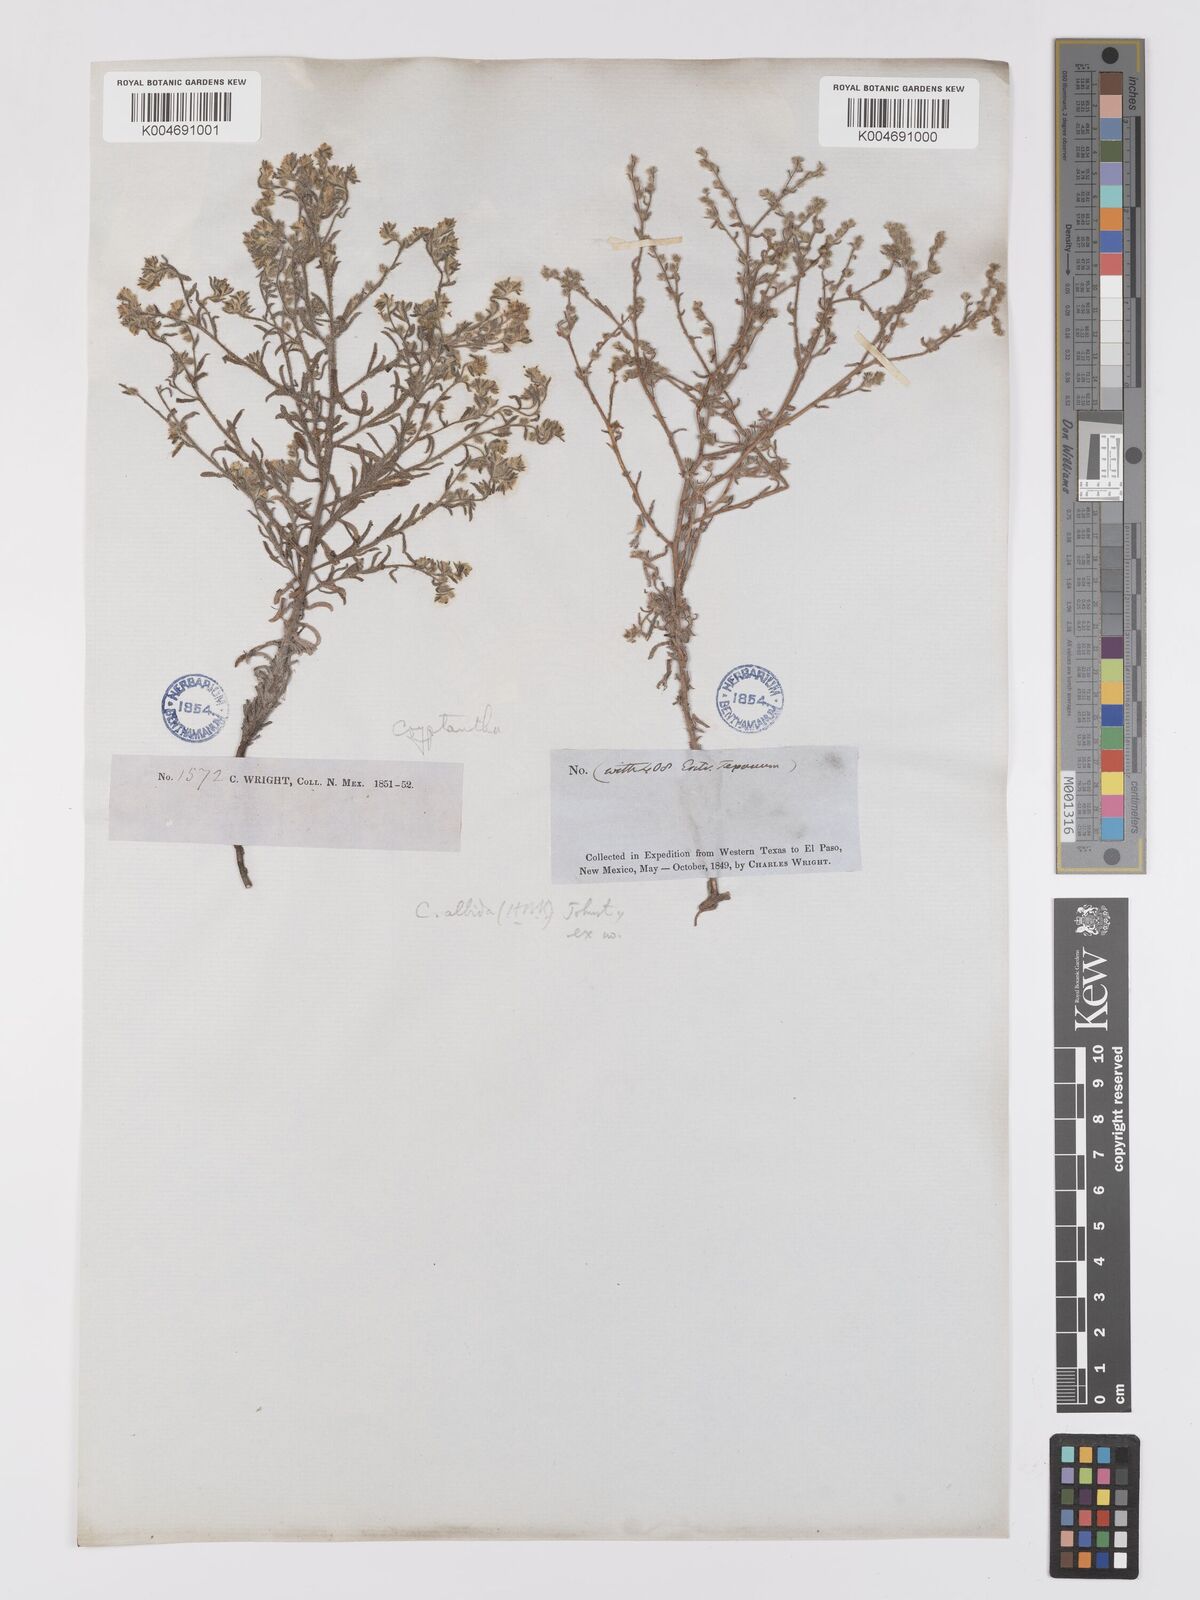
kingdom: Plantae
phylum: Tracheophyta
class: Magnoliopsida
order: Boraginales
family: Boraginaceae
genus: Johnstonella
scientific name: Johnstonella albida
